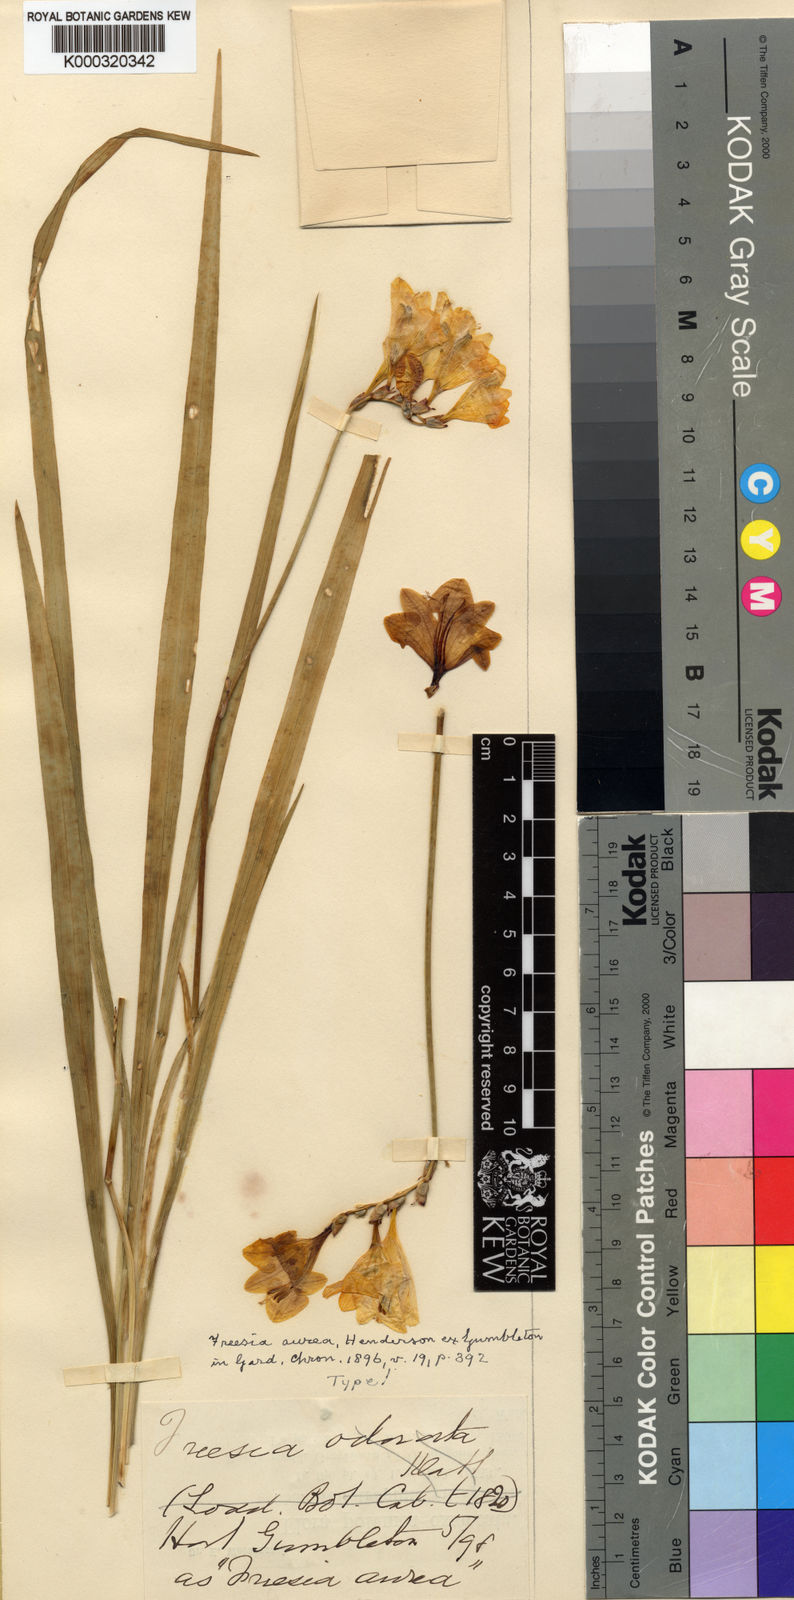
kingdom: Plantae
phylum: Tracheophyta
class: Liliopsida
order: Asparagales
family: Iridaceae
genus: Freesia
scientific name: Freesia corymbosa
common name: Common freesia
